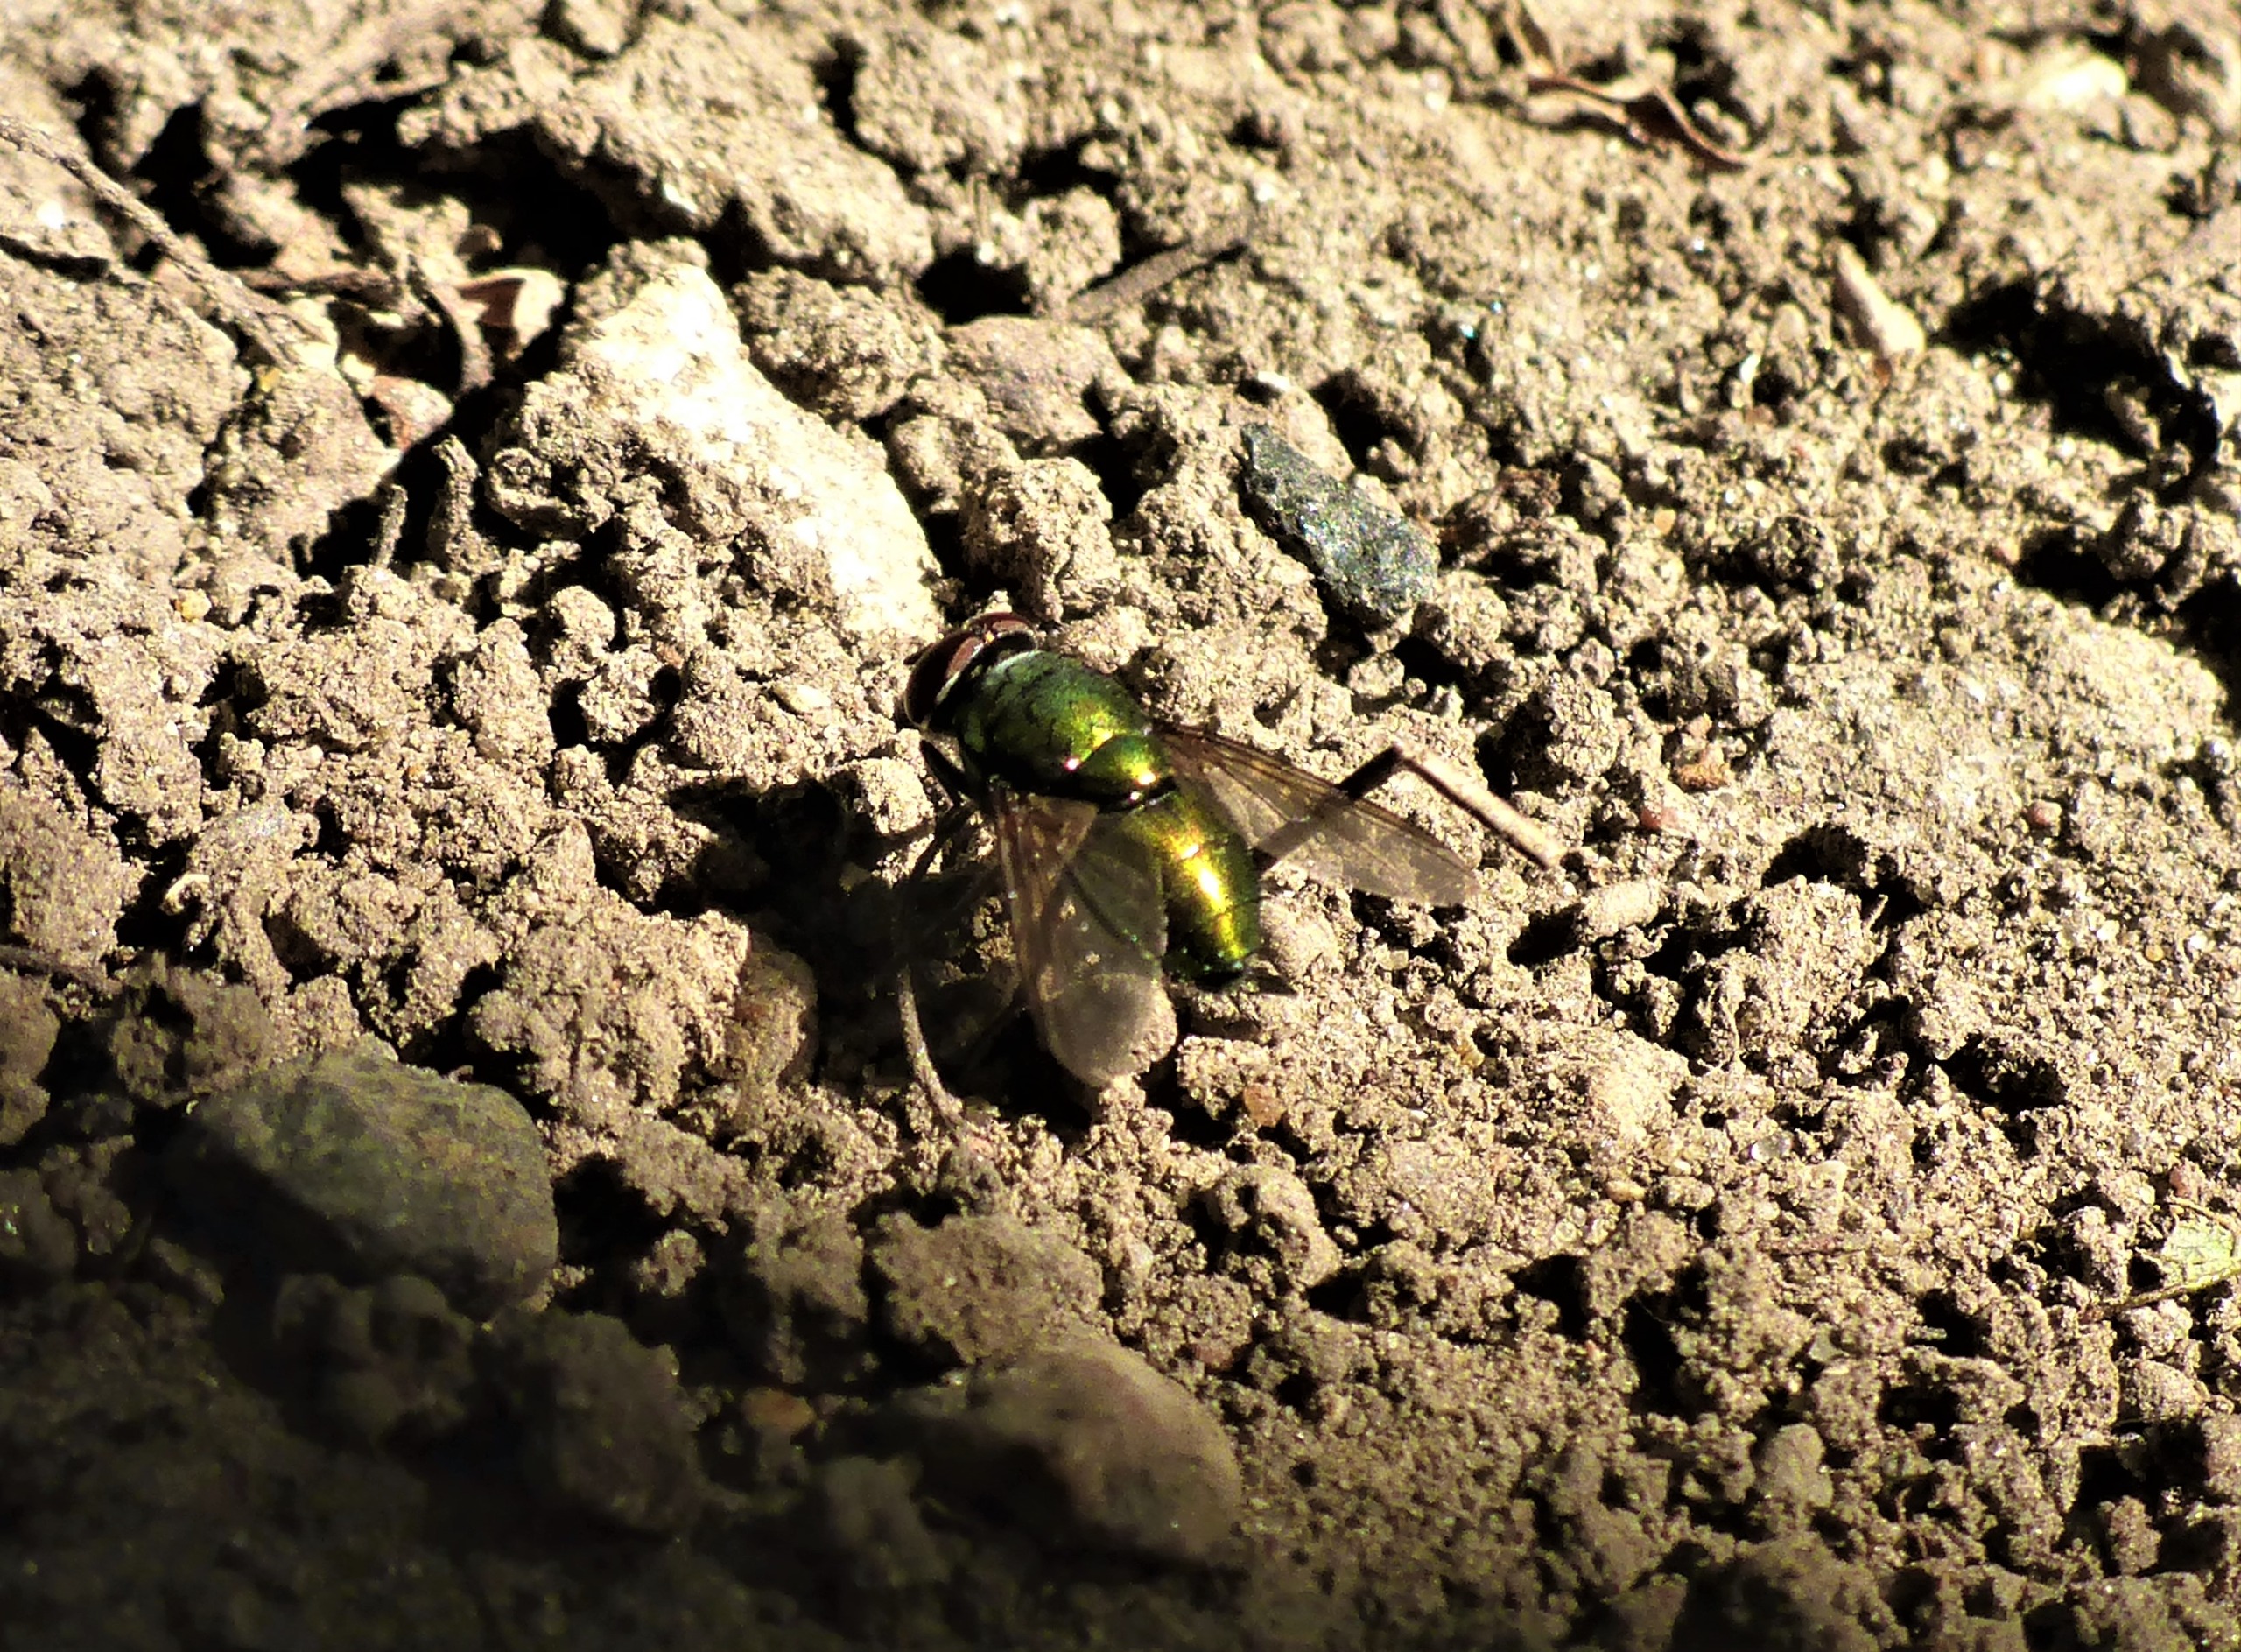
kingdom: Animalia
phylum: Arthropoda
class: Insecta
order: Diptera
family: Calliphoridae
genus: Lucilia
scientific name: Lucilia
